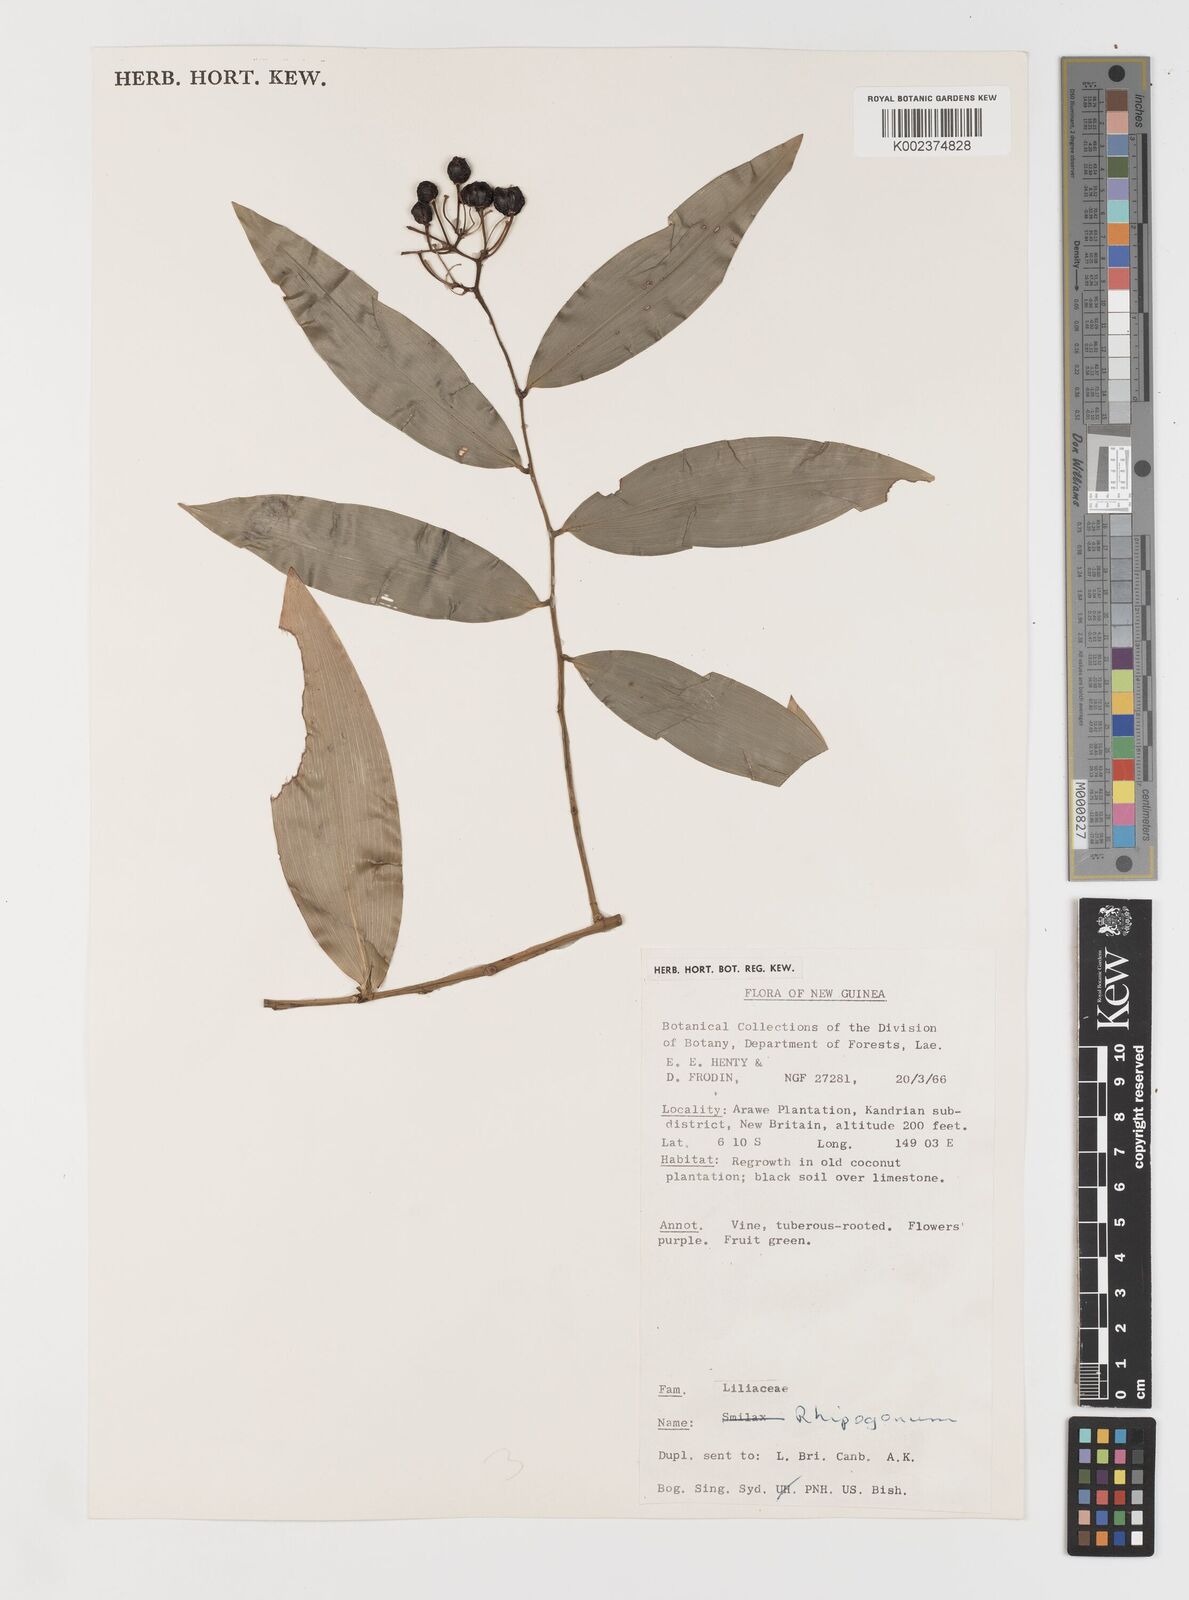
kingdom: Plantae
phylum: Tracheophyta
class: Liliopsida
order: Liliales
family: Ripogonaceae
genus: Ripogonum
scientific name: Ripogonum
